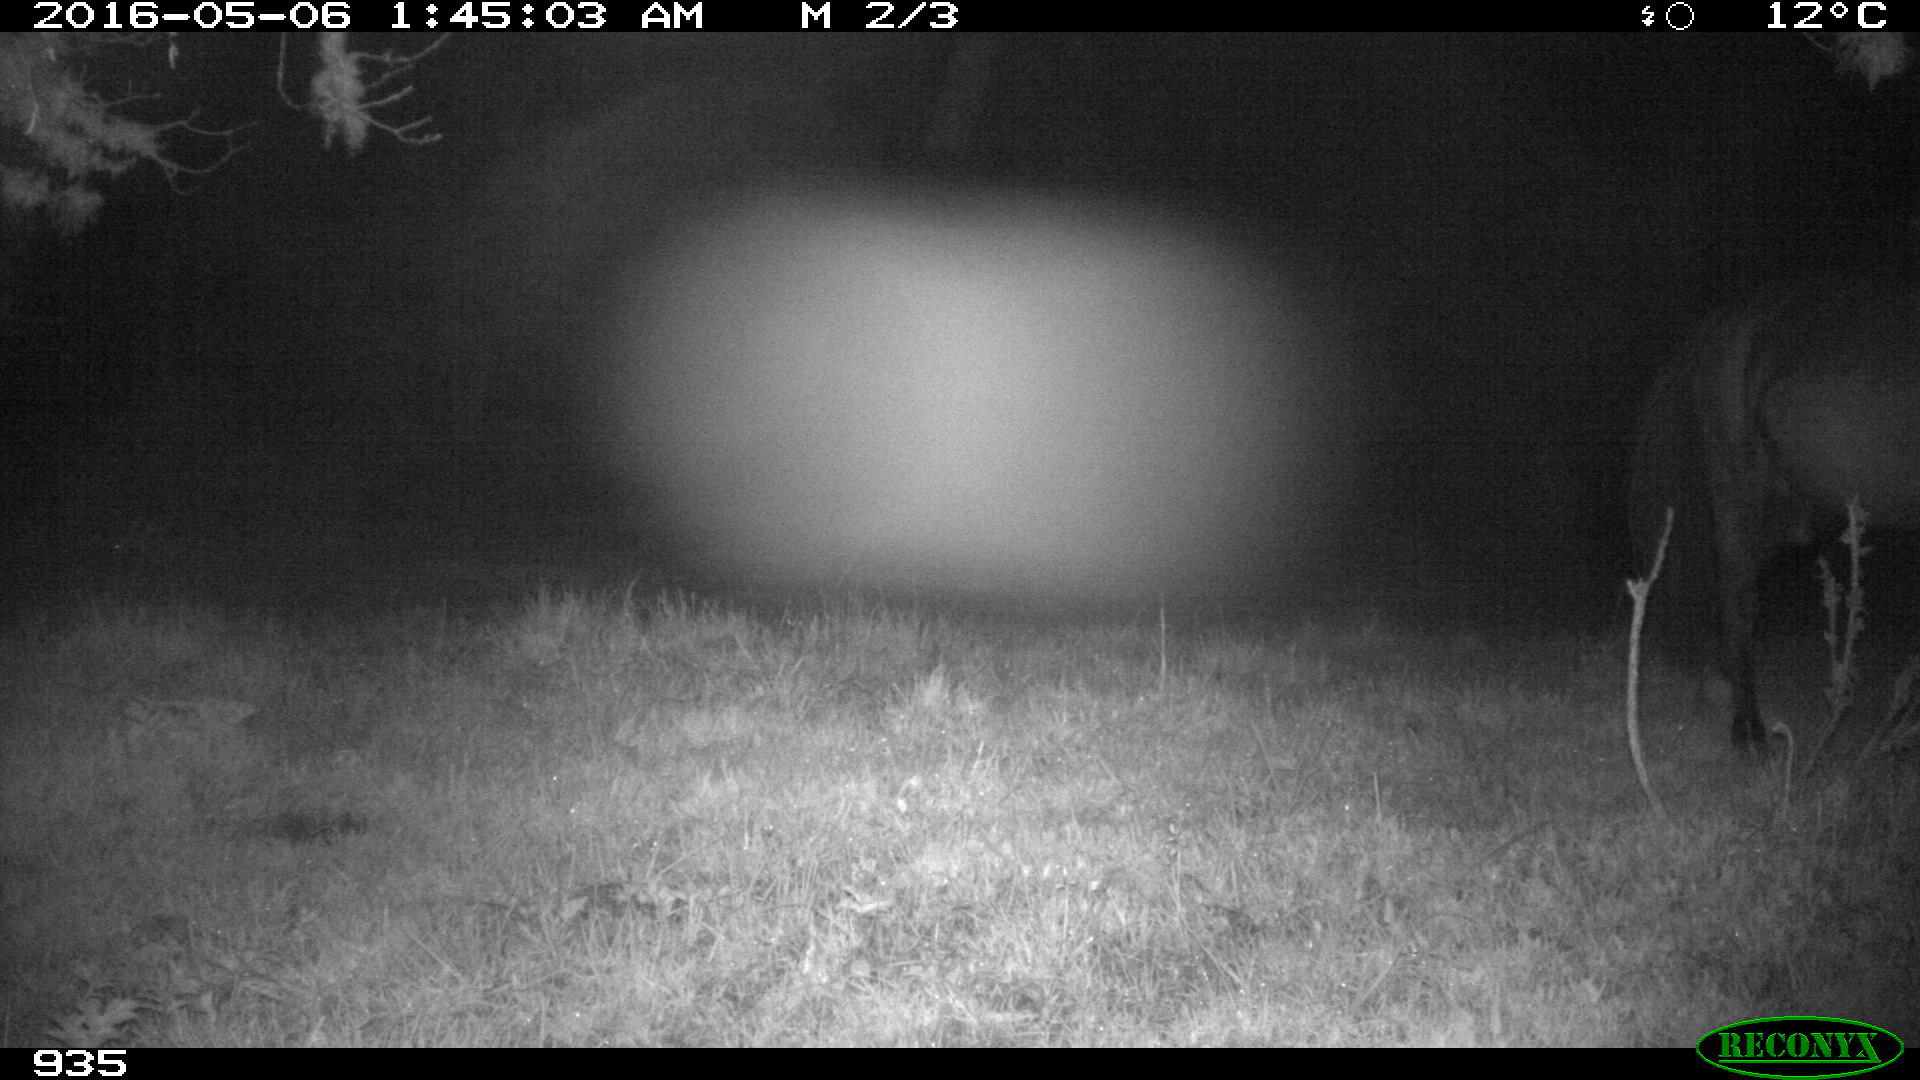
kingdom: Animalia
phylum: Chordata
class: Mammalia
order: Perissodactyla
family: Equidae
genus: Equus
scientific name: Equus caballus
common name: Horse
